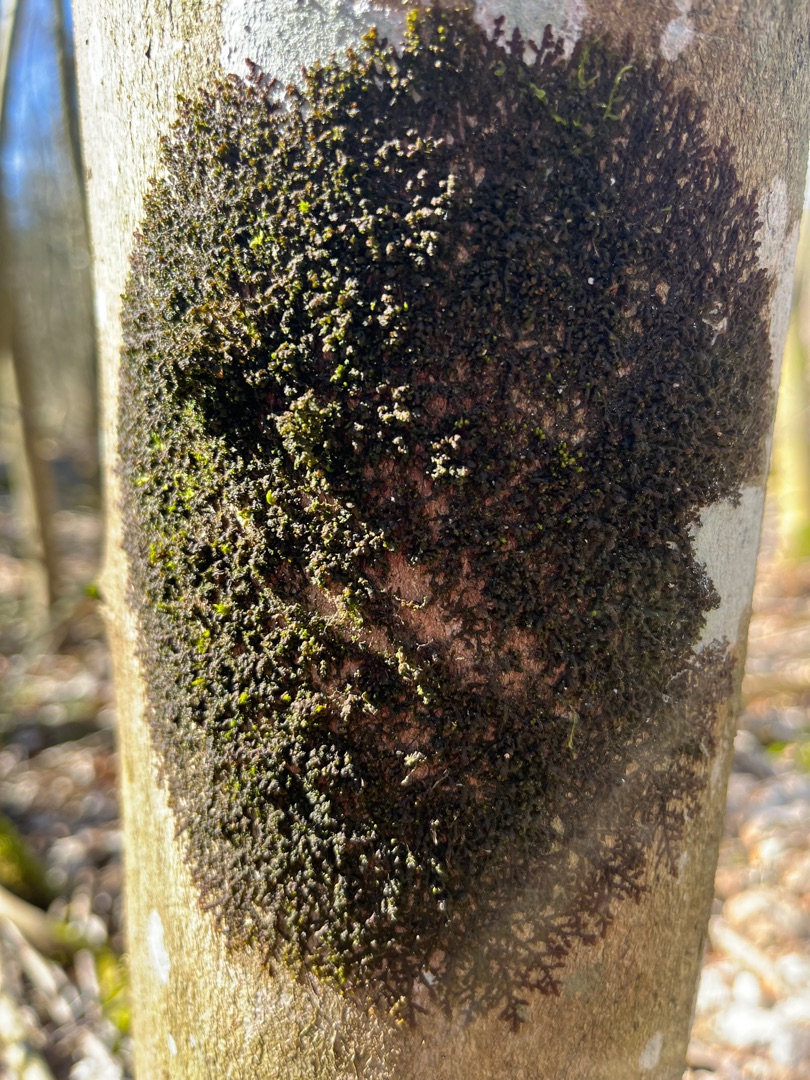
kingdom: Plantae
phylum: Marchantiophyta
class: Jungermanniopsida
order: Porellales
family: Frullaniaceae
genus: Frullania
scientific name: Frullania
